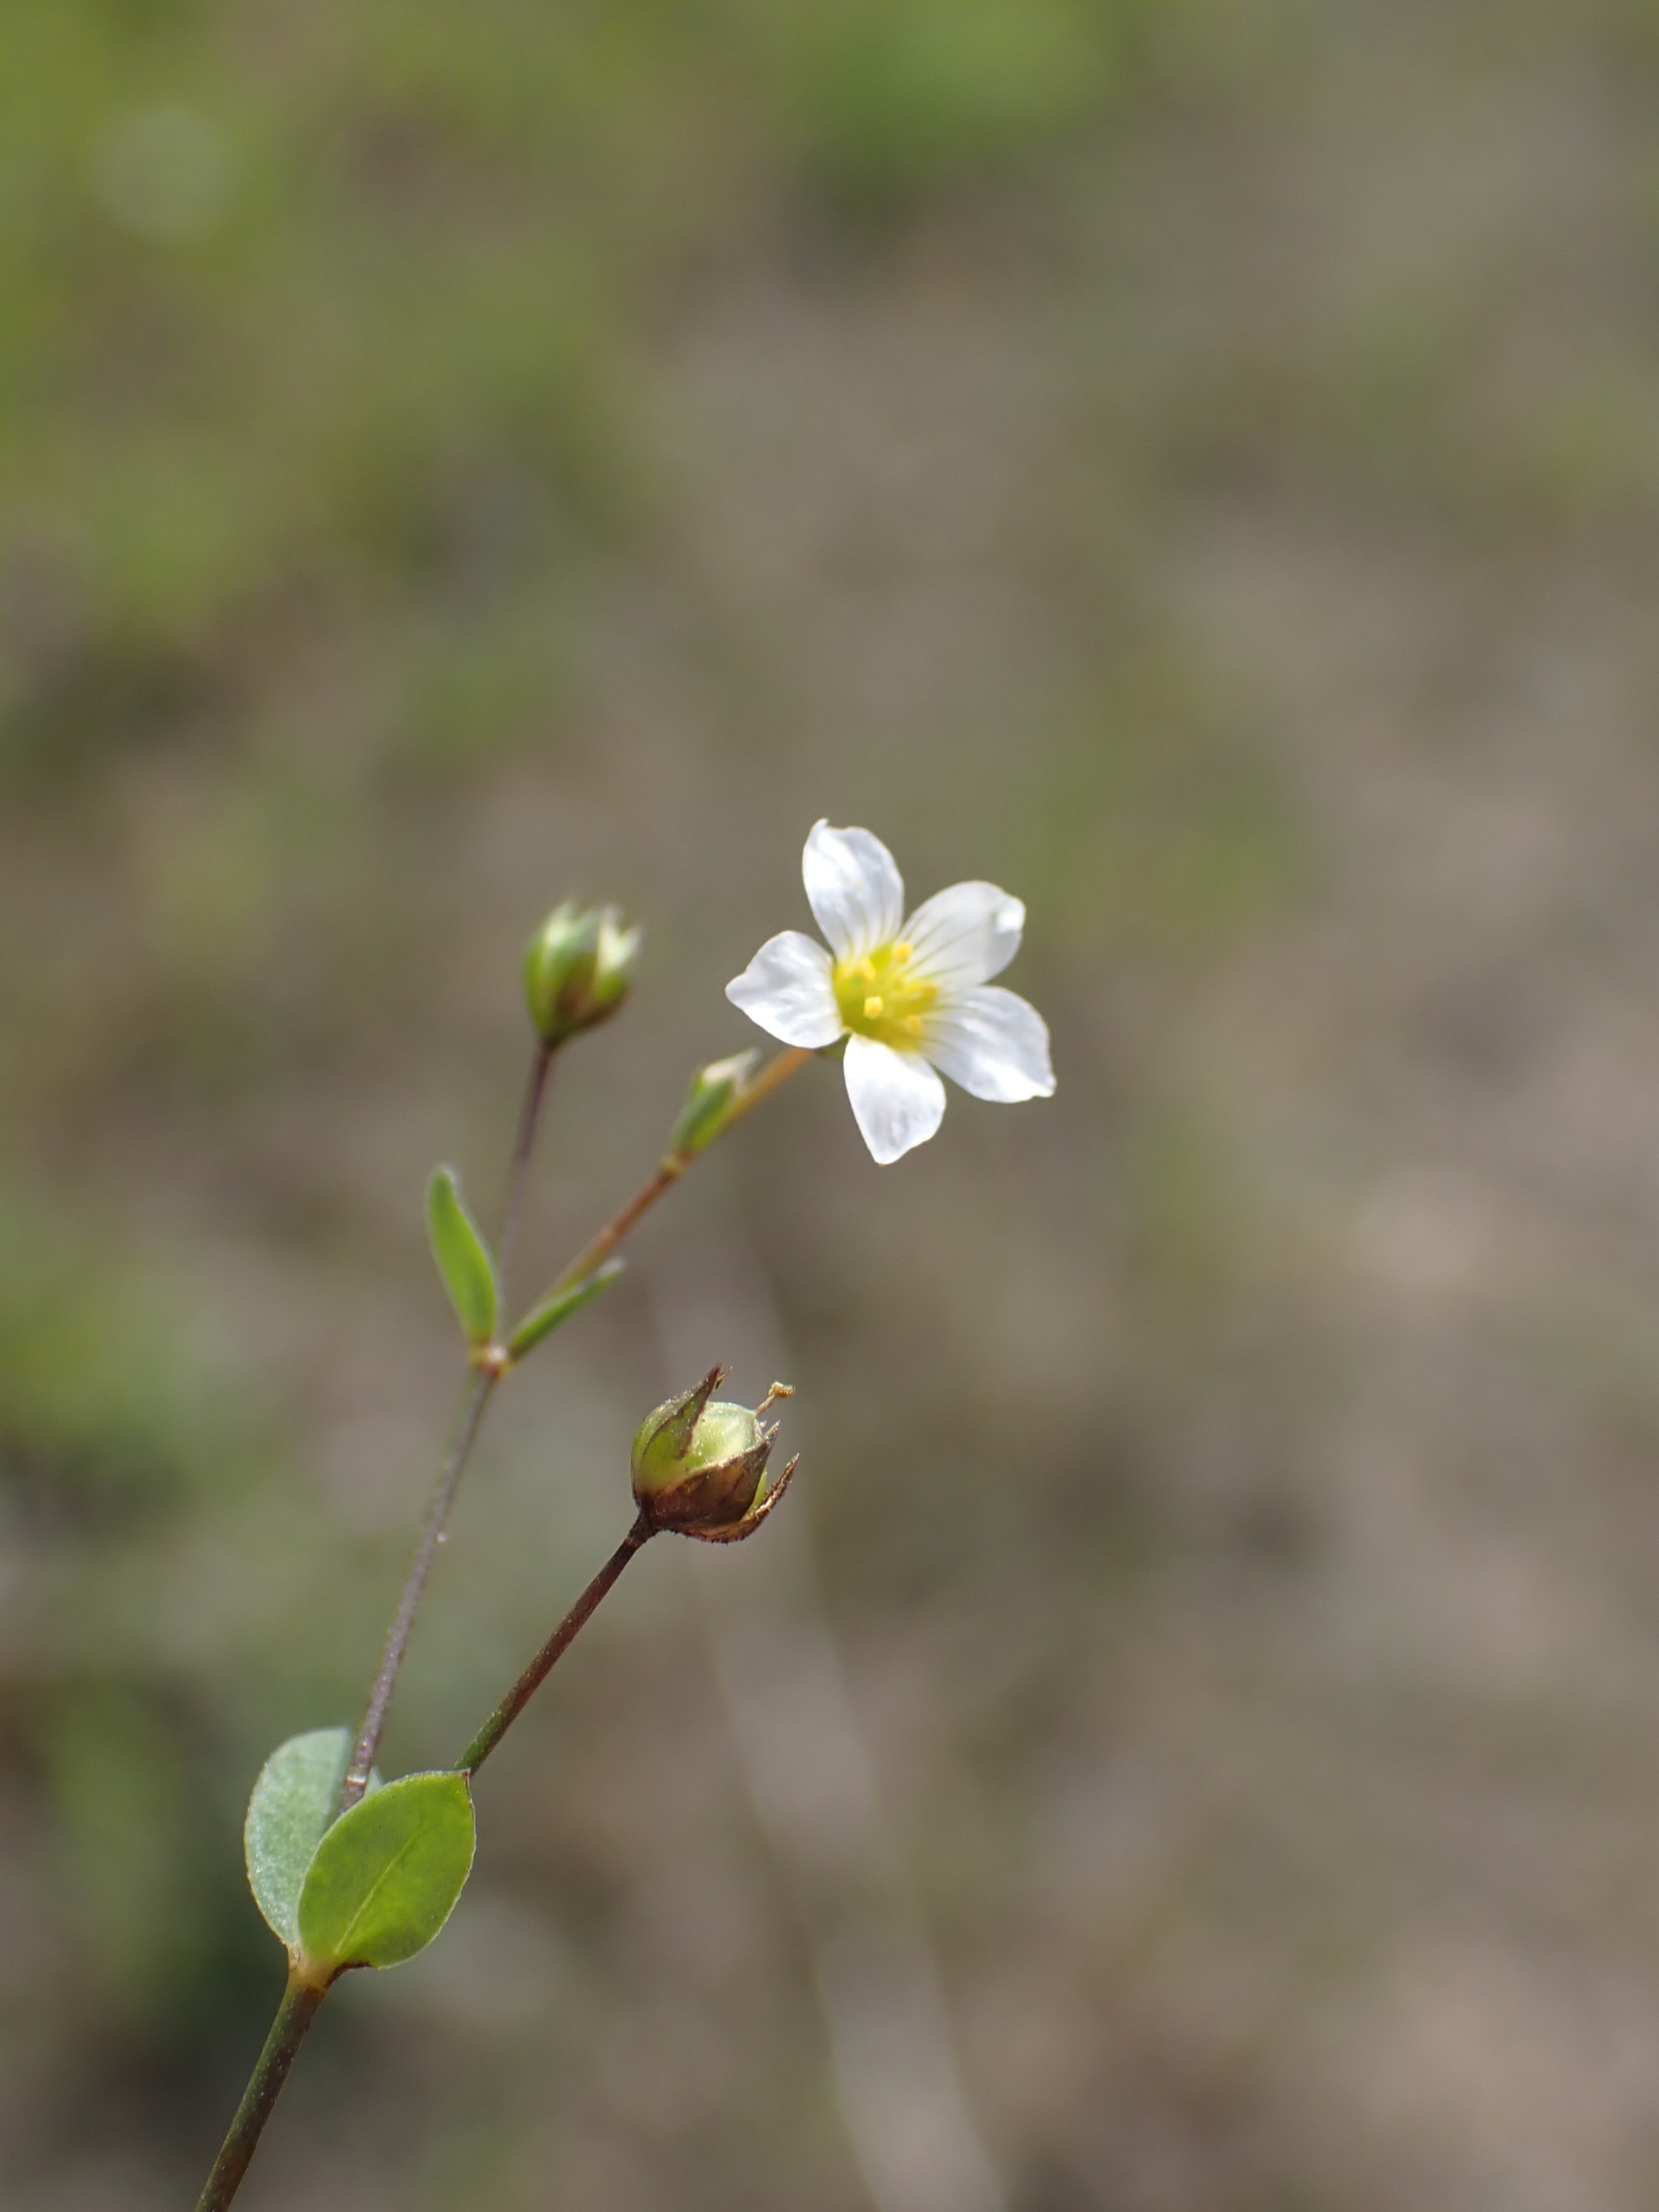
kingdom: Plantae
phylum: Tracheophyta
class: Magnoliopsida
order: Malpighiales
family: Linaceae
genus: Linum
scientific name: Linum catharticum
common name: Vild hør
